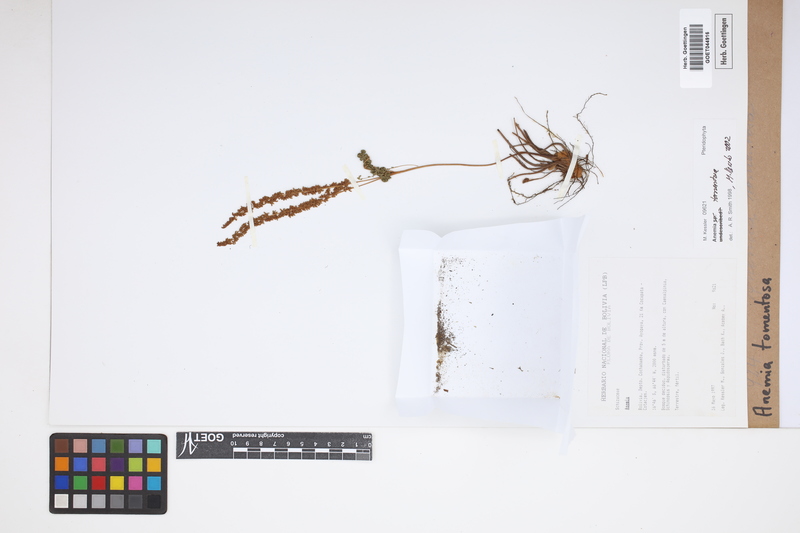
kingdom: Plantae
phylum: Tracheophyta
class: Polypodiopsida
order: Schizaeales
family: Anemiaceae
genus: Anemia
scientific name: Anemia tomentosa
